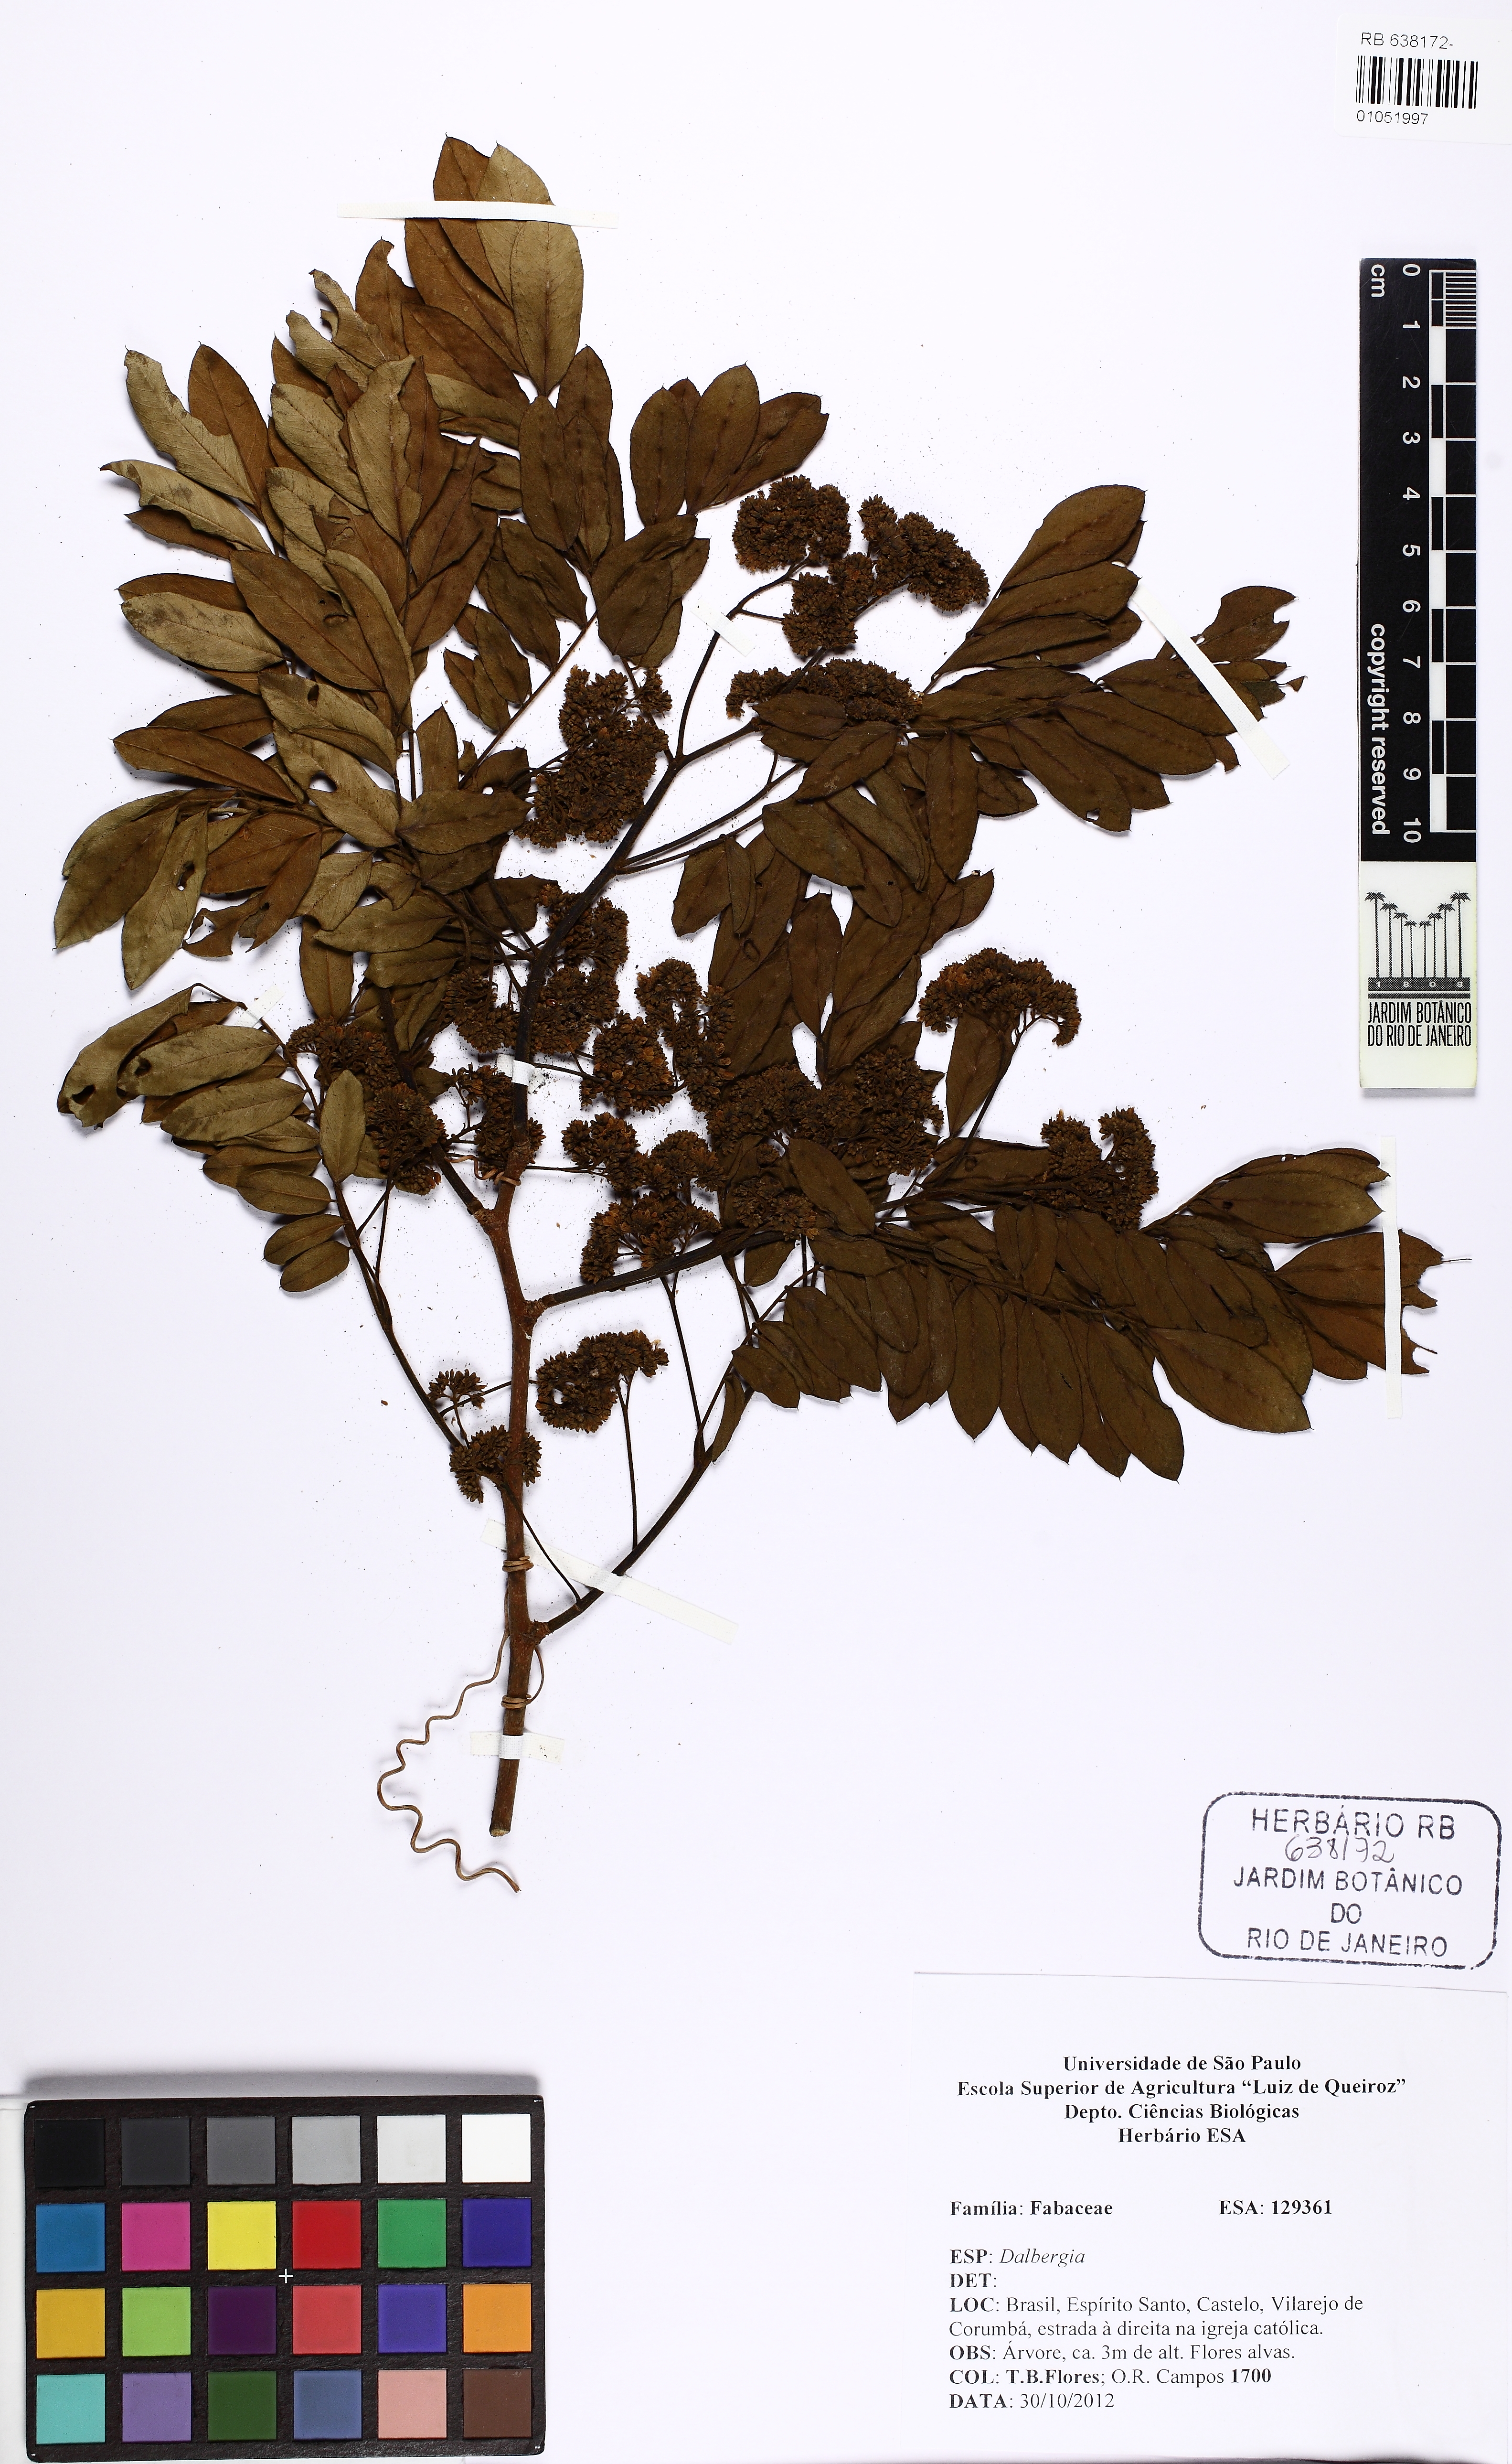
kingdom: Plantae
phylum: Tracheophyta
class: Magnoliopsida
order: Fabales
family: Fabaceae
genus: Dalbergia
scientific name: Dalbergia frutescens
